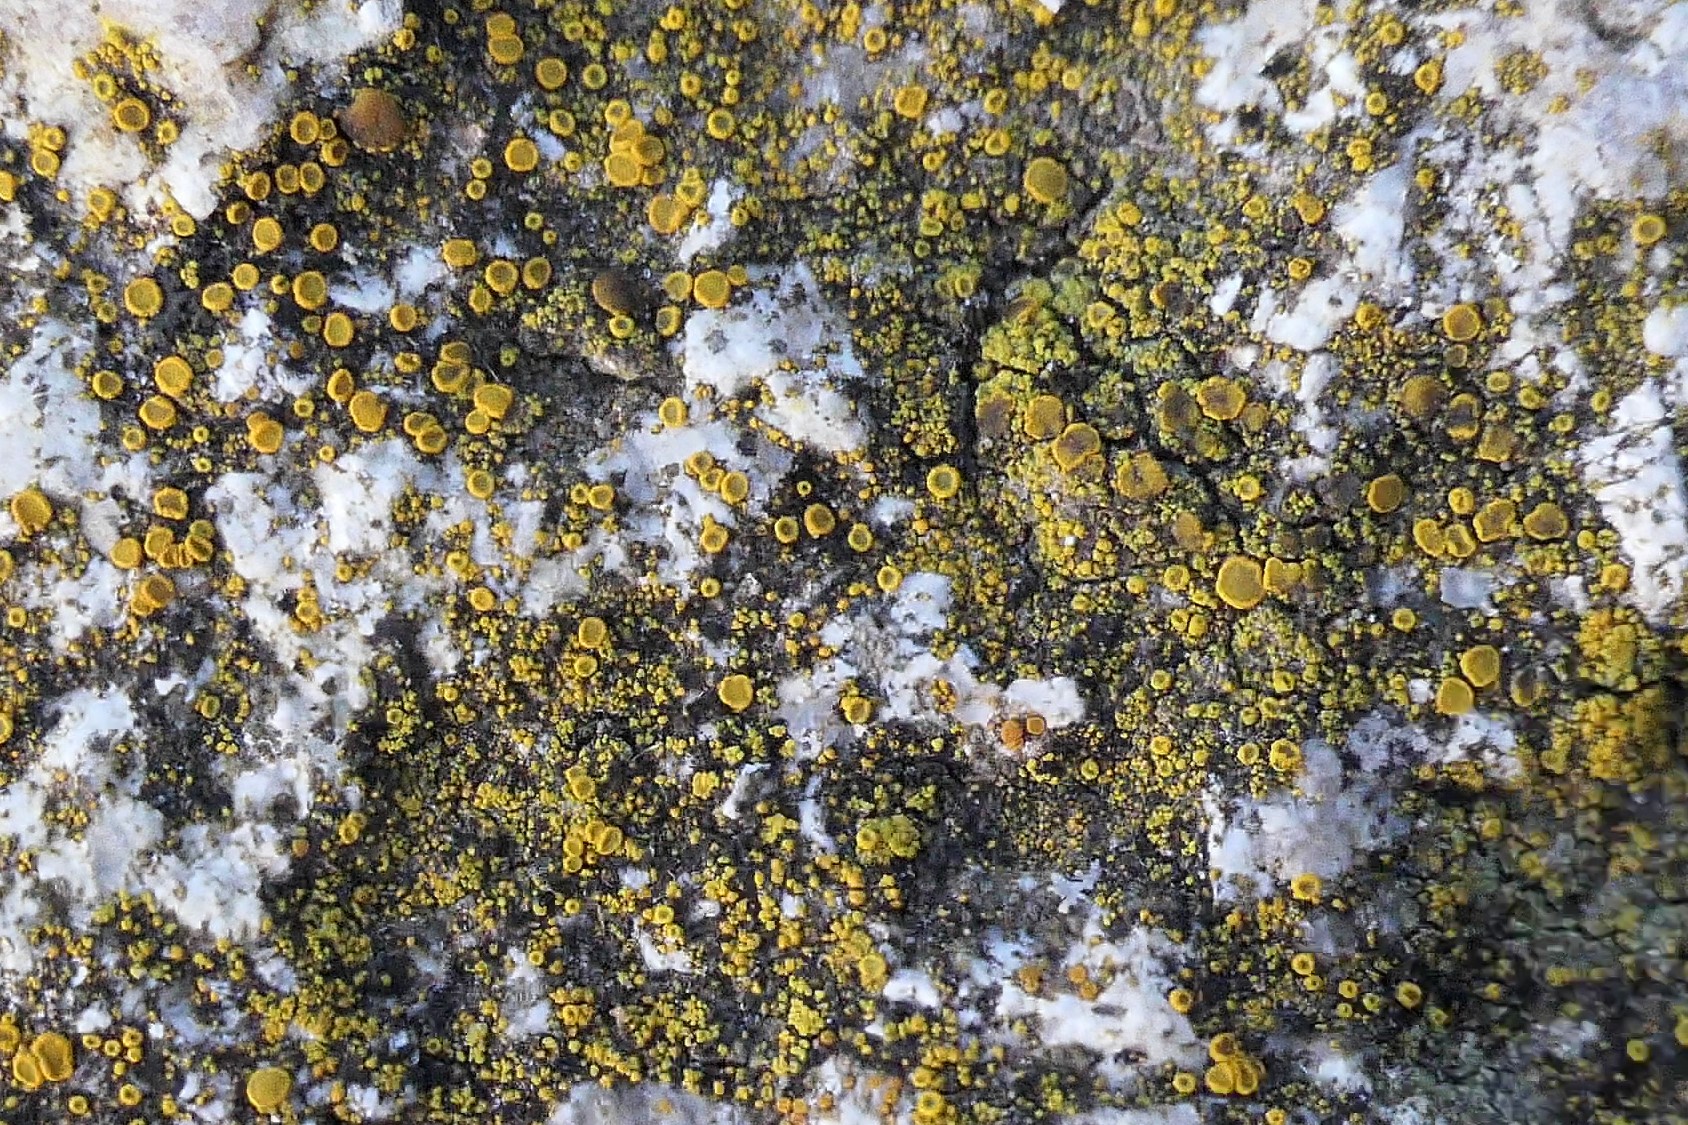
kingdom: Fungi
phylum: Ascomycota
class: Candelariomycetes
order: Candelariales
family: Candelariaceae
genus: Candelariella
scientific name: Candelariella vitellina
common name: almindelig æggeblommelav
